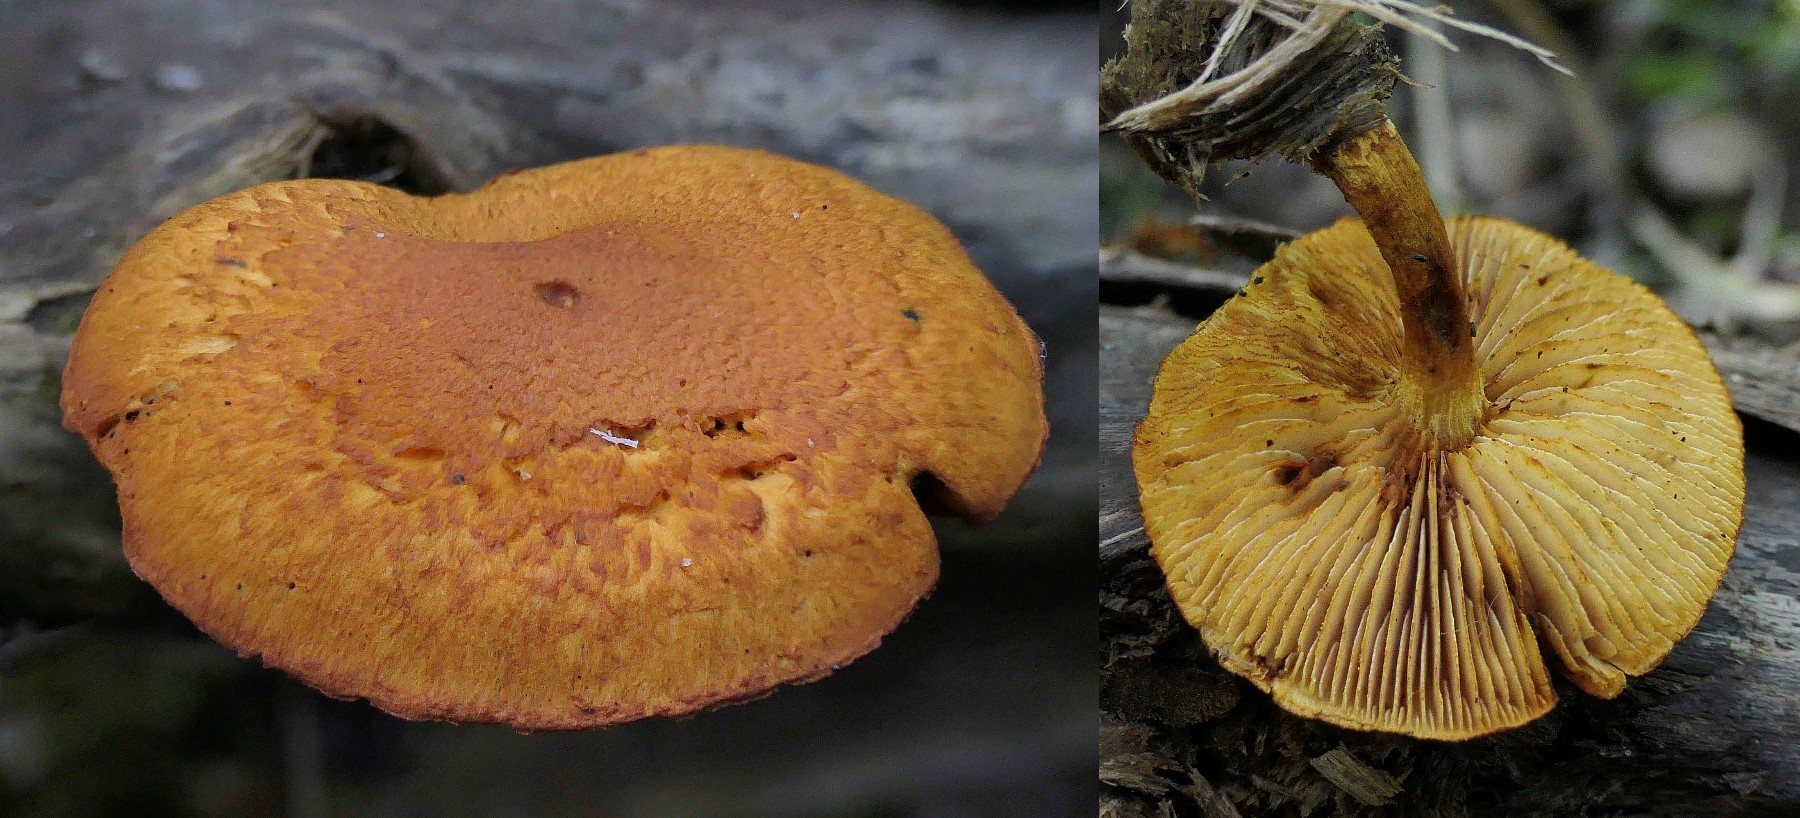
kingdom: Fungi
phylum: Basidiomycota
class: Agaricomycetes
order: Agaricales
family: Strophariaceae
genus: Pholiota
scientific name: Pholiota tuberculosa
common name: finskællet skælhat
